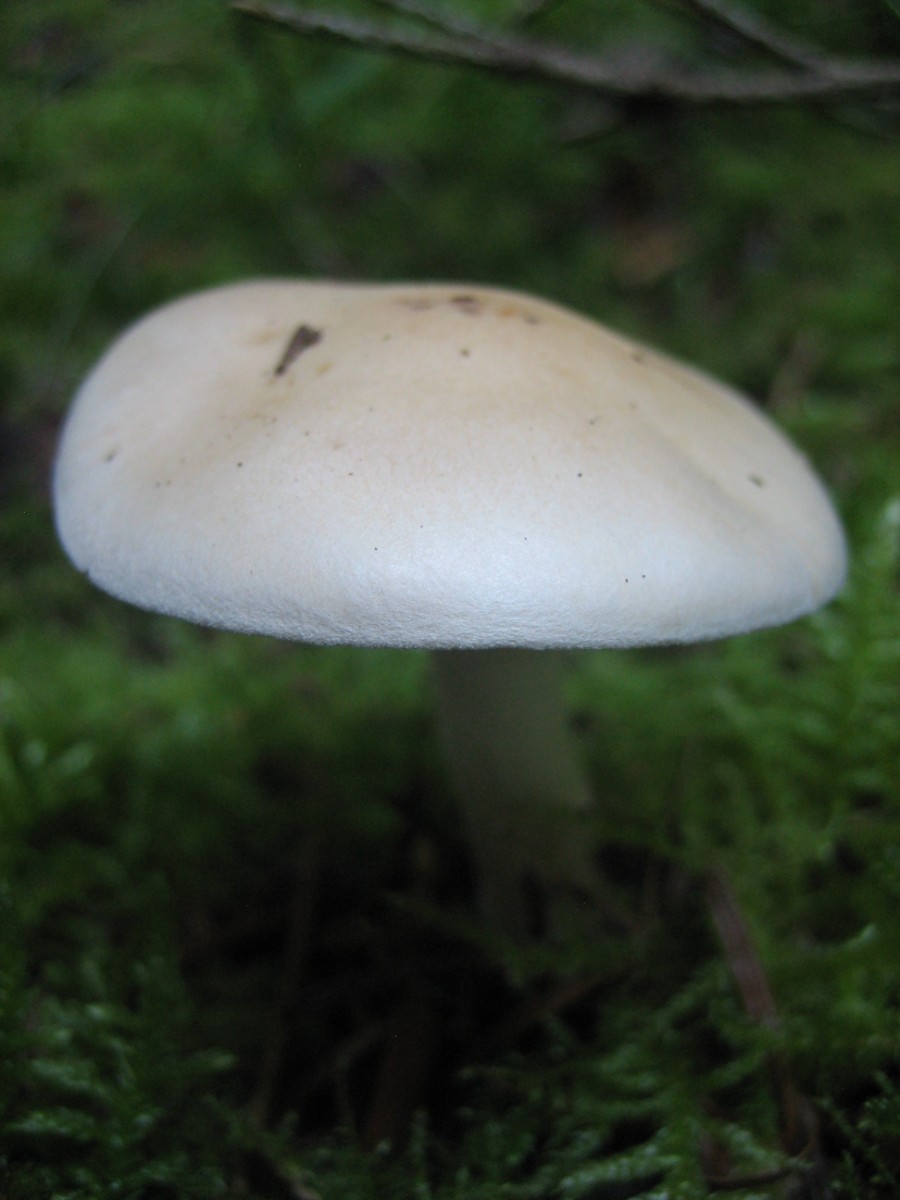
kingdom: Fungi
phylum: Basidiomycota
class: Agaricomycetes
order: Agaricales
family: Hymenogastraceae
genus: Hebeloma
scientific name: Hebeloma
